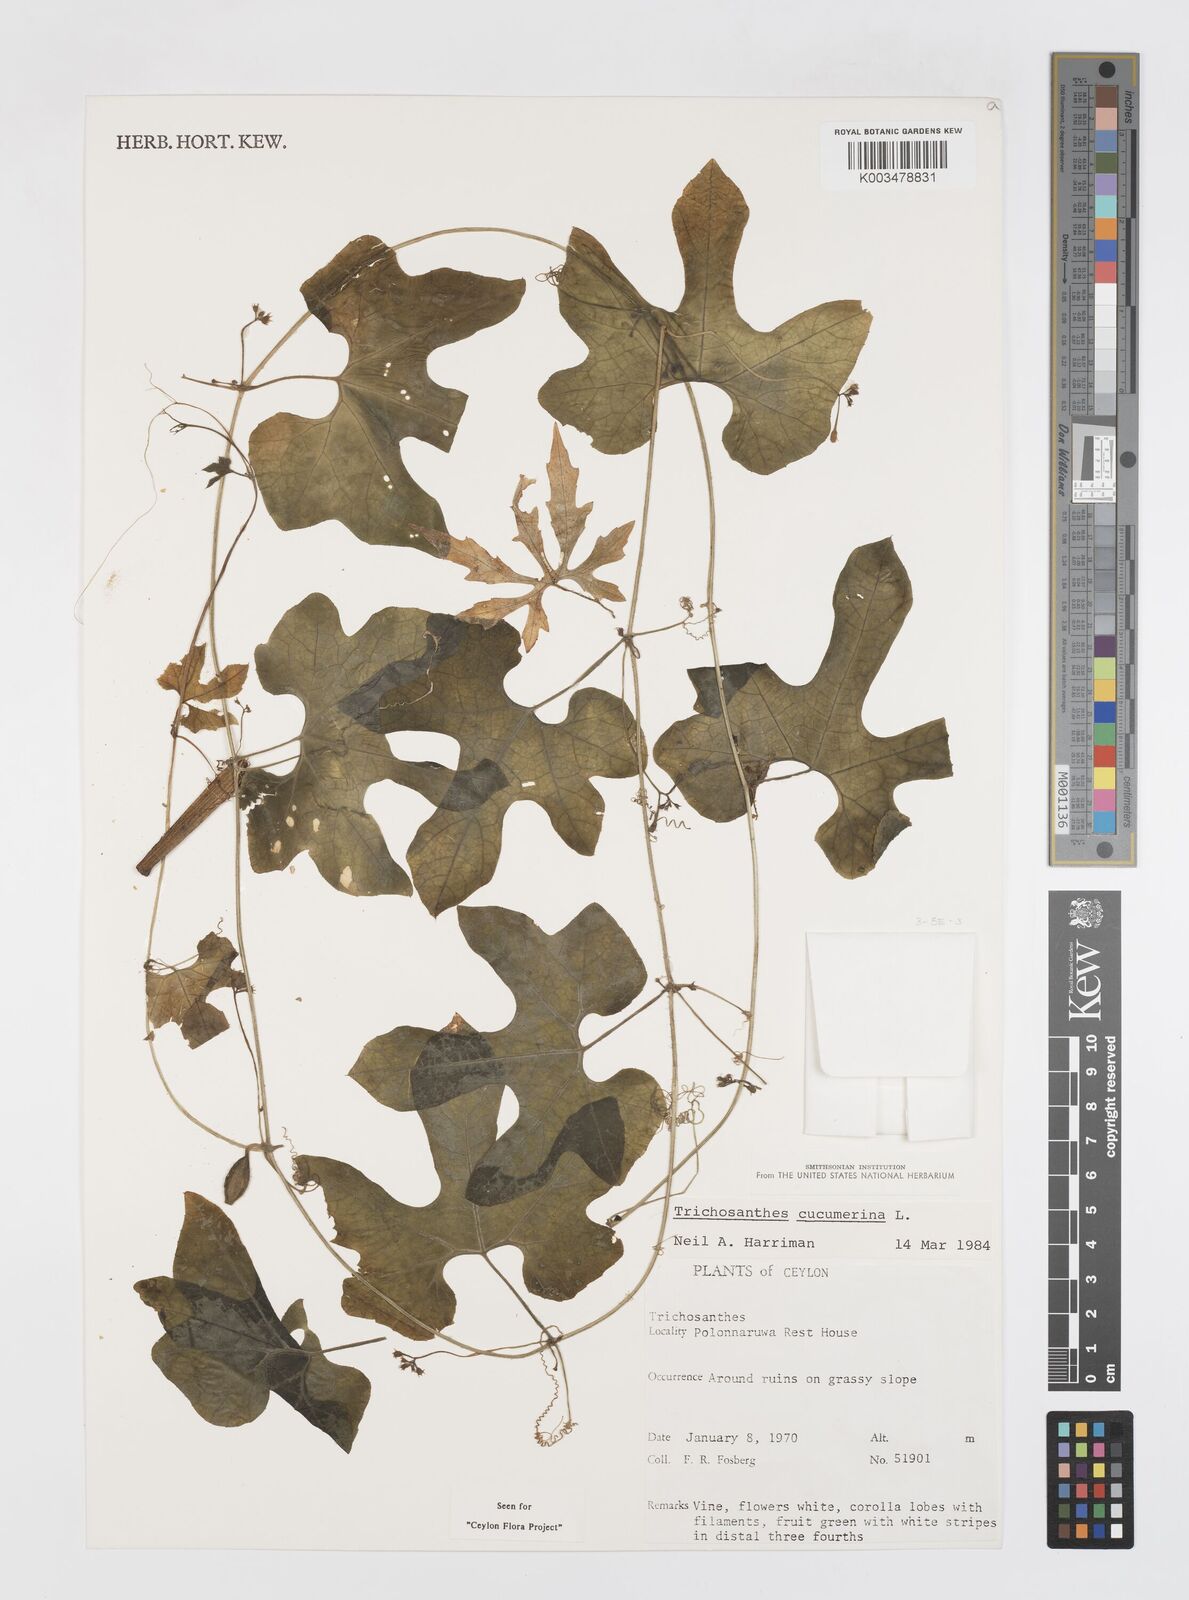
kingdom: Plantae
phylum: Tracheophyta
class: Magnoliopsida
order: Cucurbitales
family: Cucurbitaceae
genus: Trichosanthes
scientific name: Trichosanthes cucumerina
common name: Snakegourd
